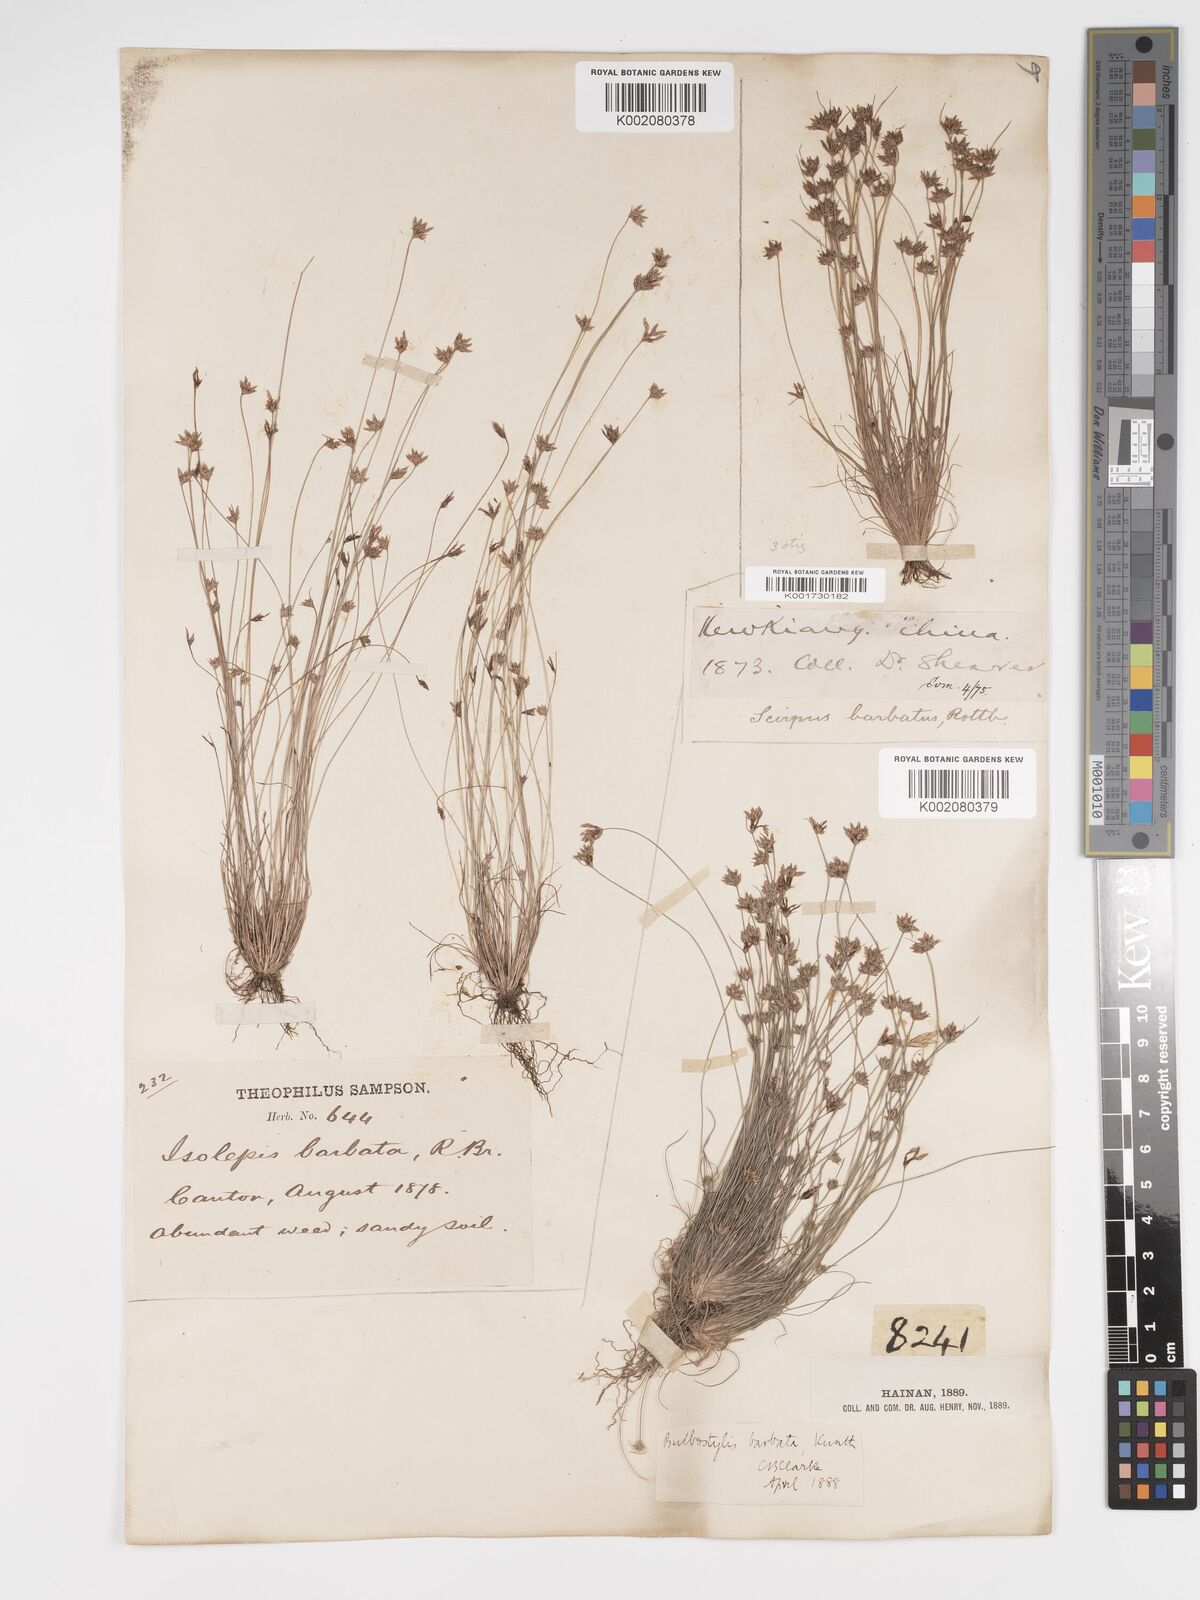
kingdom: Plantae
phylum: Tracheophyta
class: Liliopsida
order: Poales
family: Cyperaceae
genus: Bulbostylis
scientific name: Bulbostylis barbata
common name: Watergrass
